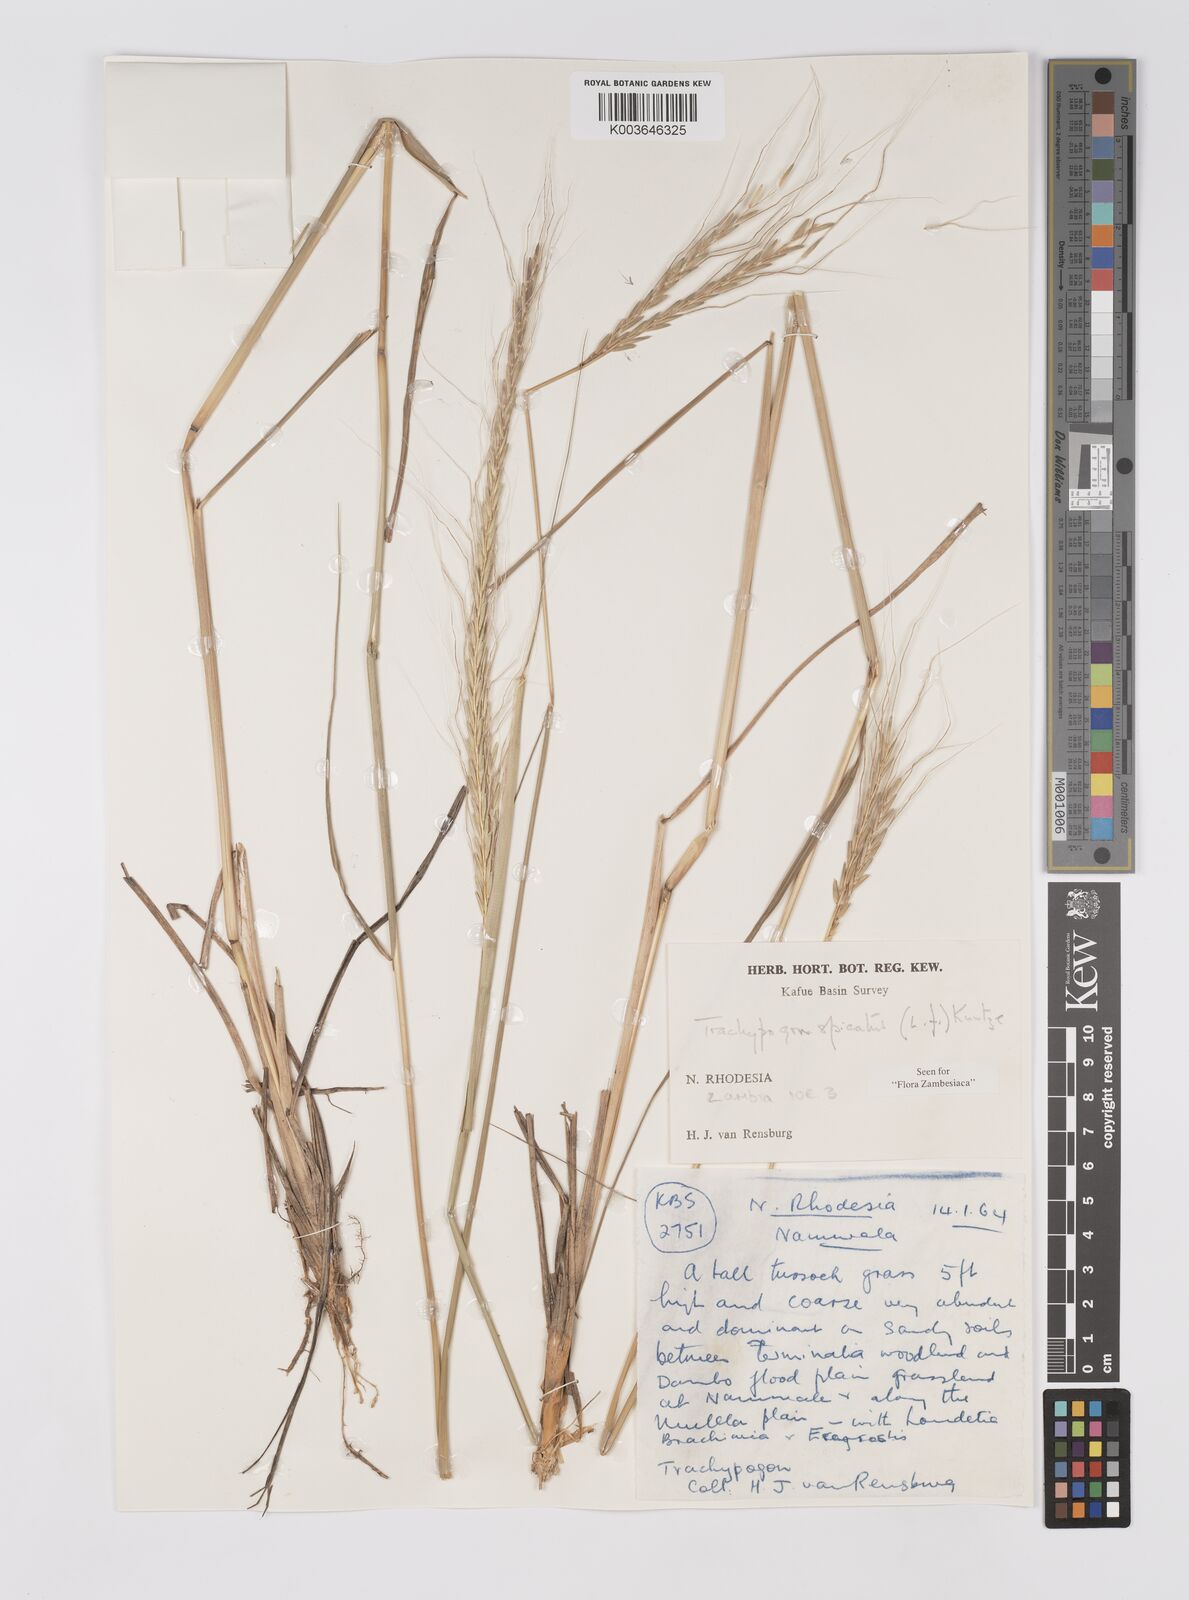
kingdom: Plantae
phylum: Tracheophyta
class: Liliopsida
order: Poales
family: Poaceae
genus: Trachypogon
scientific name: Trachypogon spicatus
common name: Crinkle-awn
